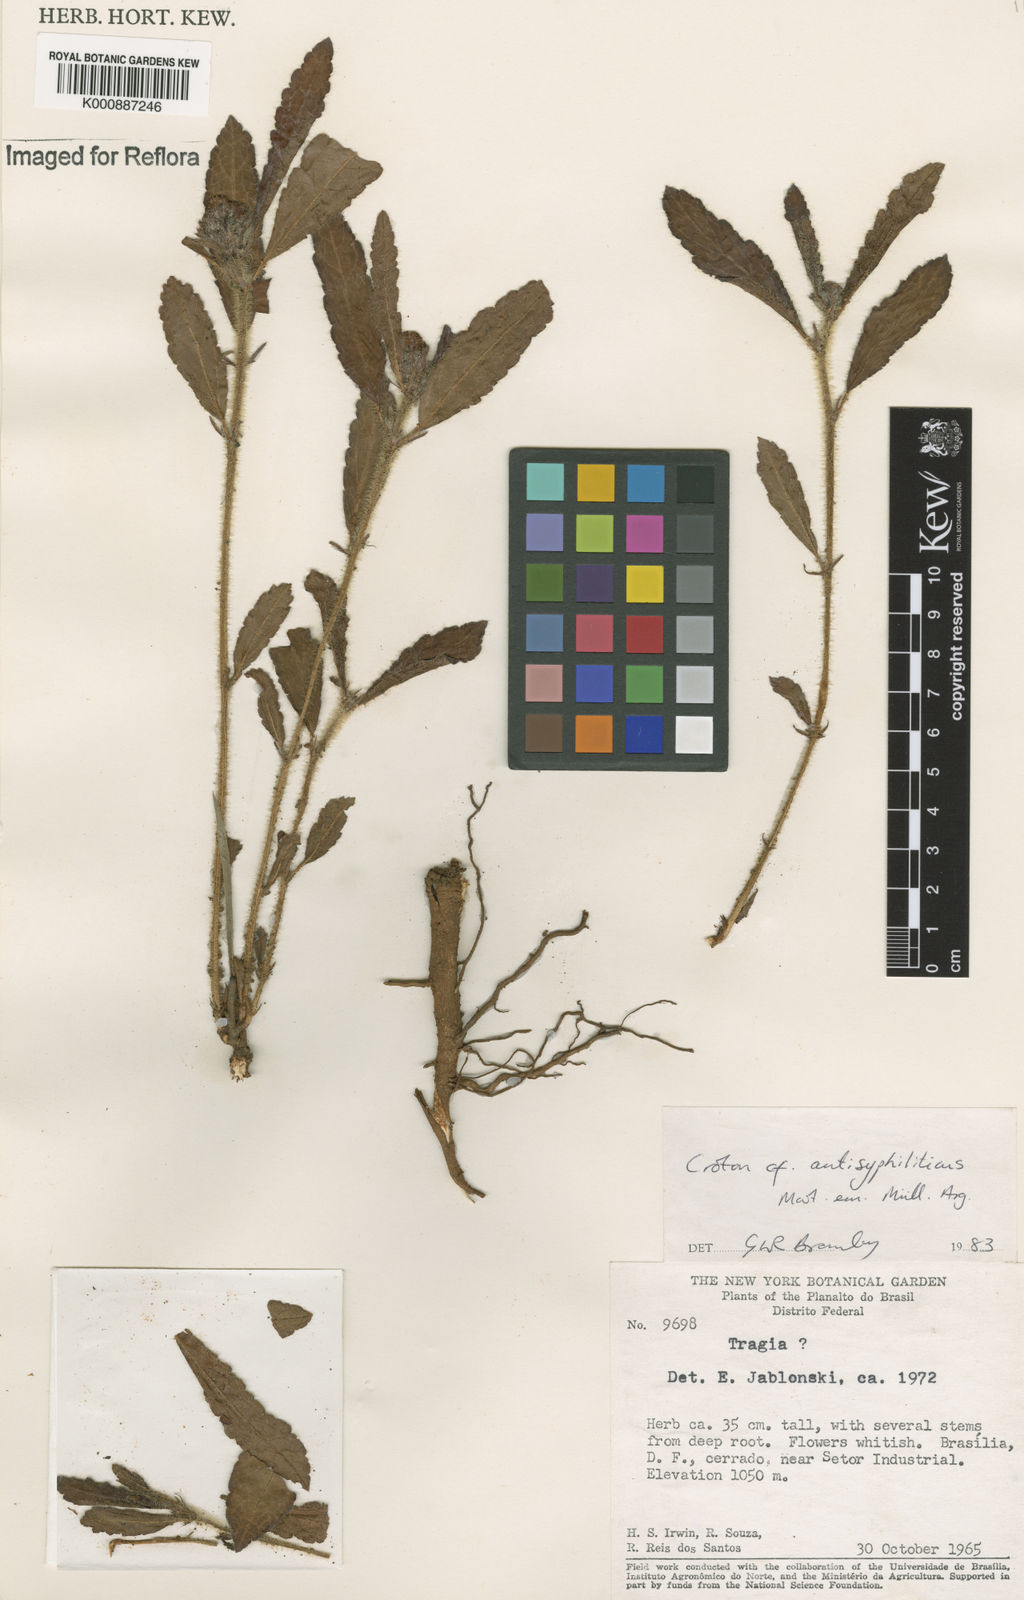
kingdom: Plantae
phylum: Tracheophyta
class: Magnoliopsida
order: Malpighiales
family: Euphorbiaceae
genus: Croton
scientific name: Croton antisyphiliticus
